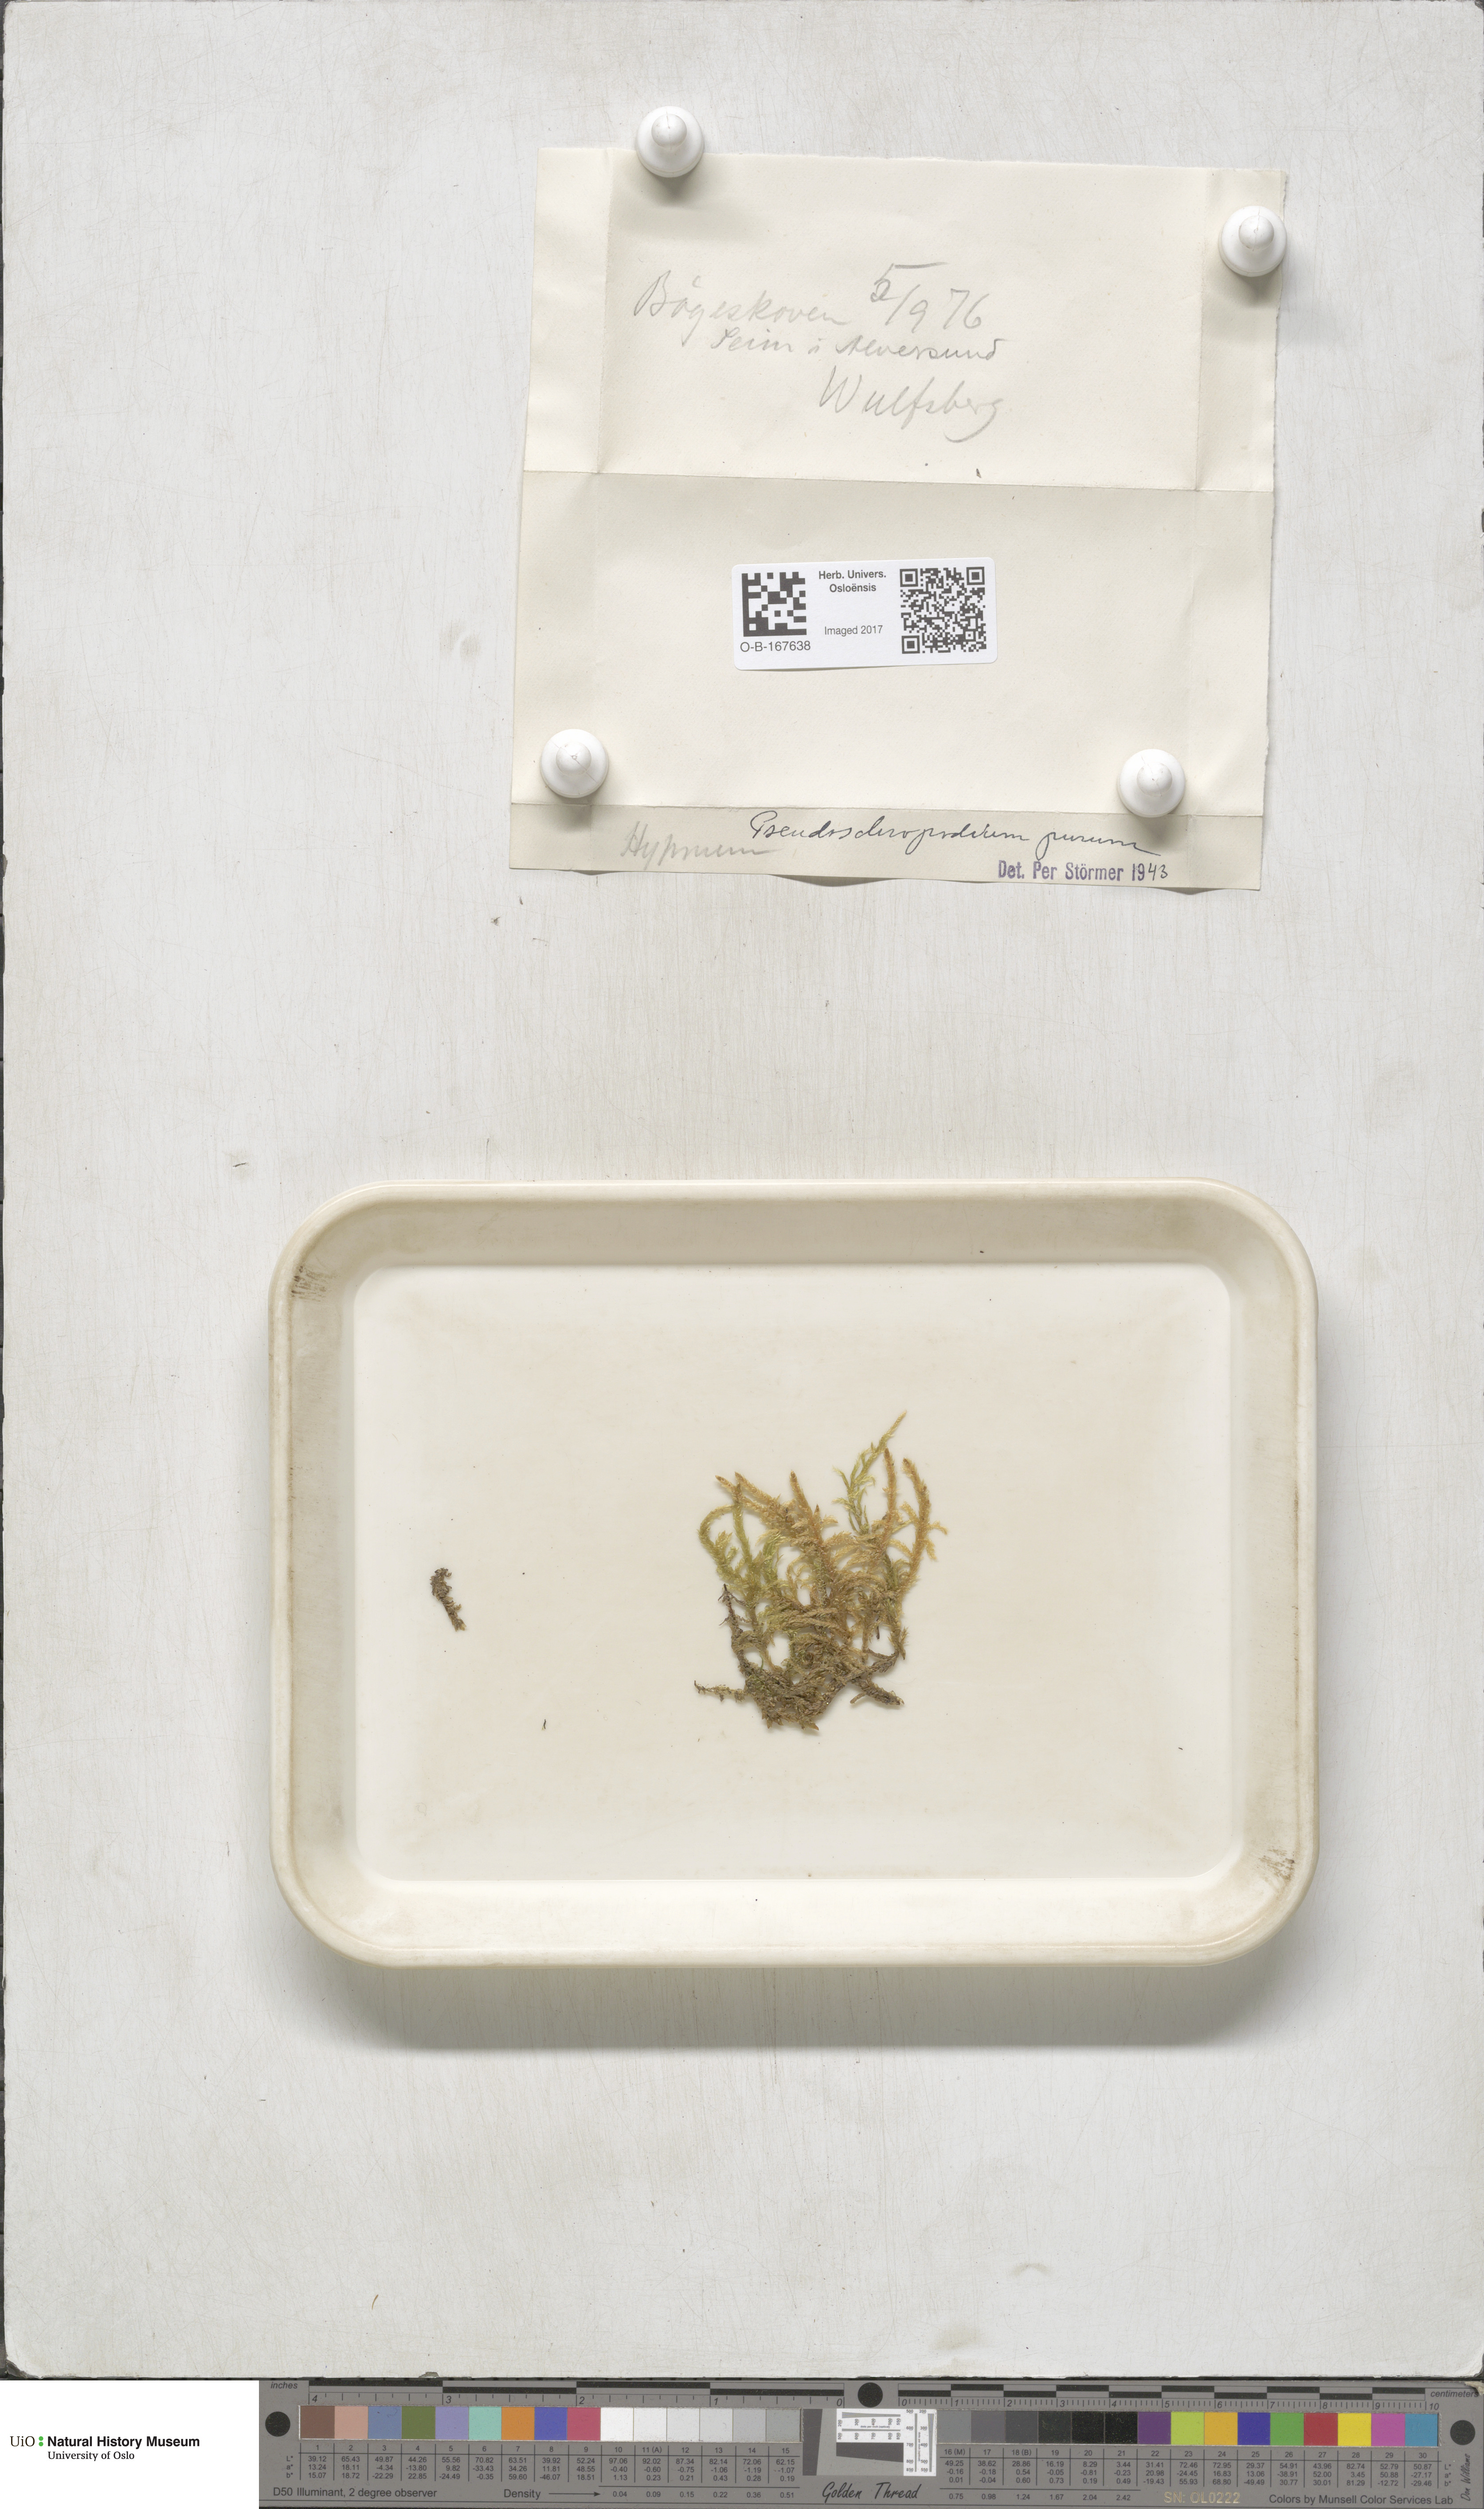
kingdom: Plantae
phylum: Bryophyta
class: Bryopsida
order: Hypnales
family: Brachytheciaceae
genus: Pseudoscleropodium
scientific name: Pseudoscleropodium purum
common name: Neat feather-moss
